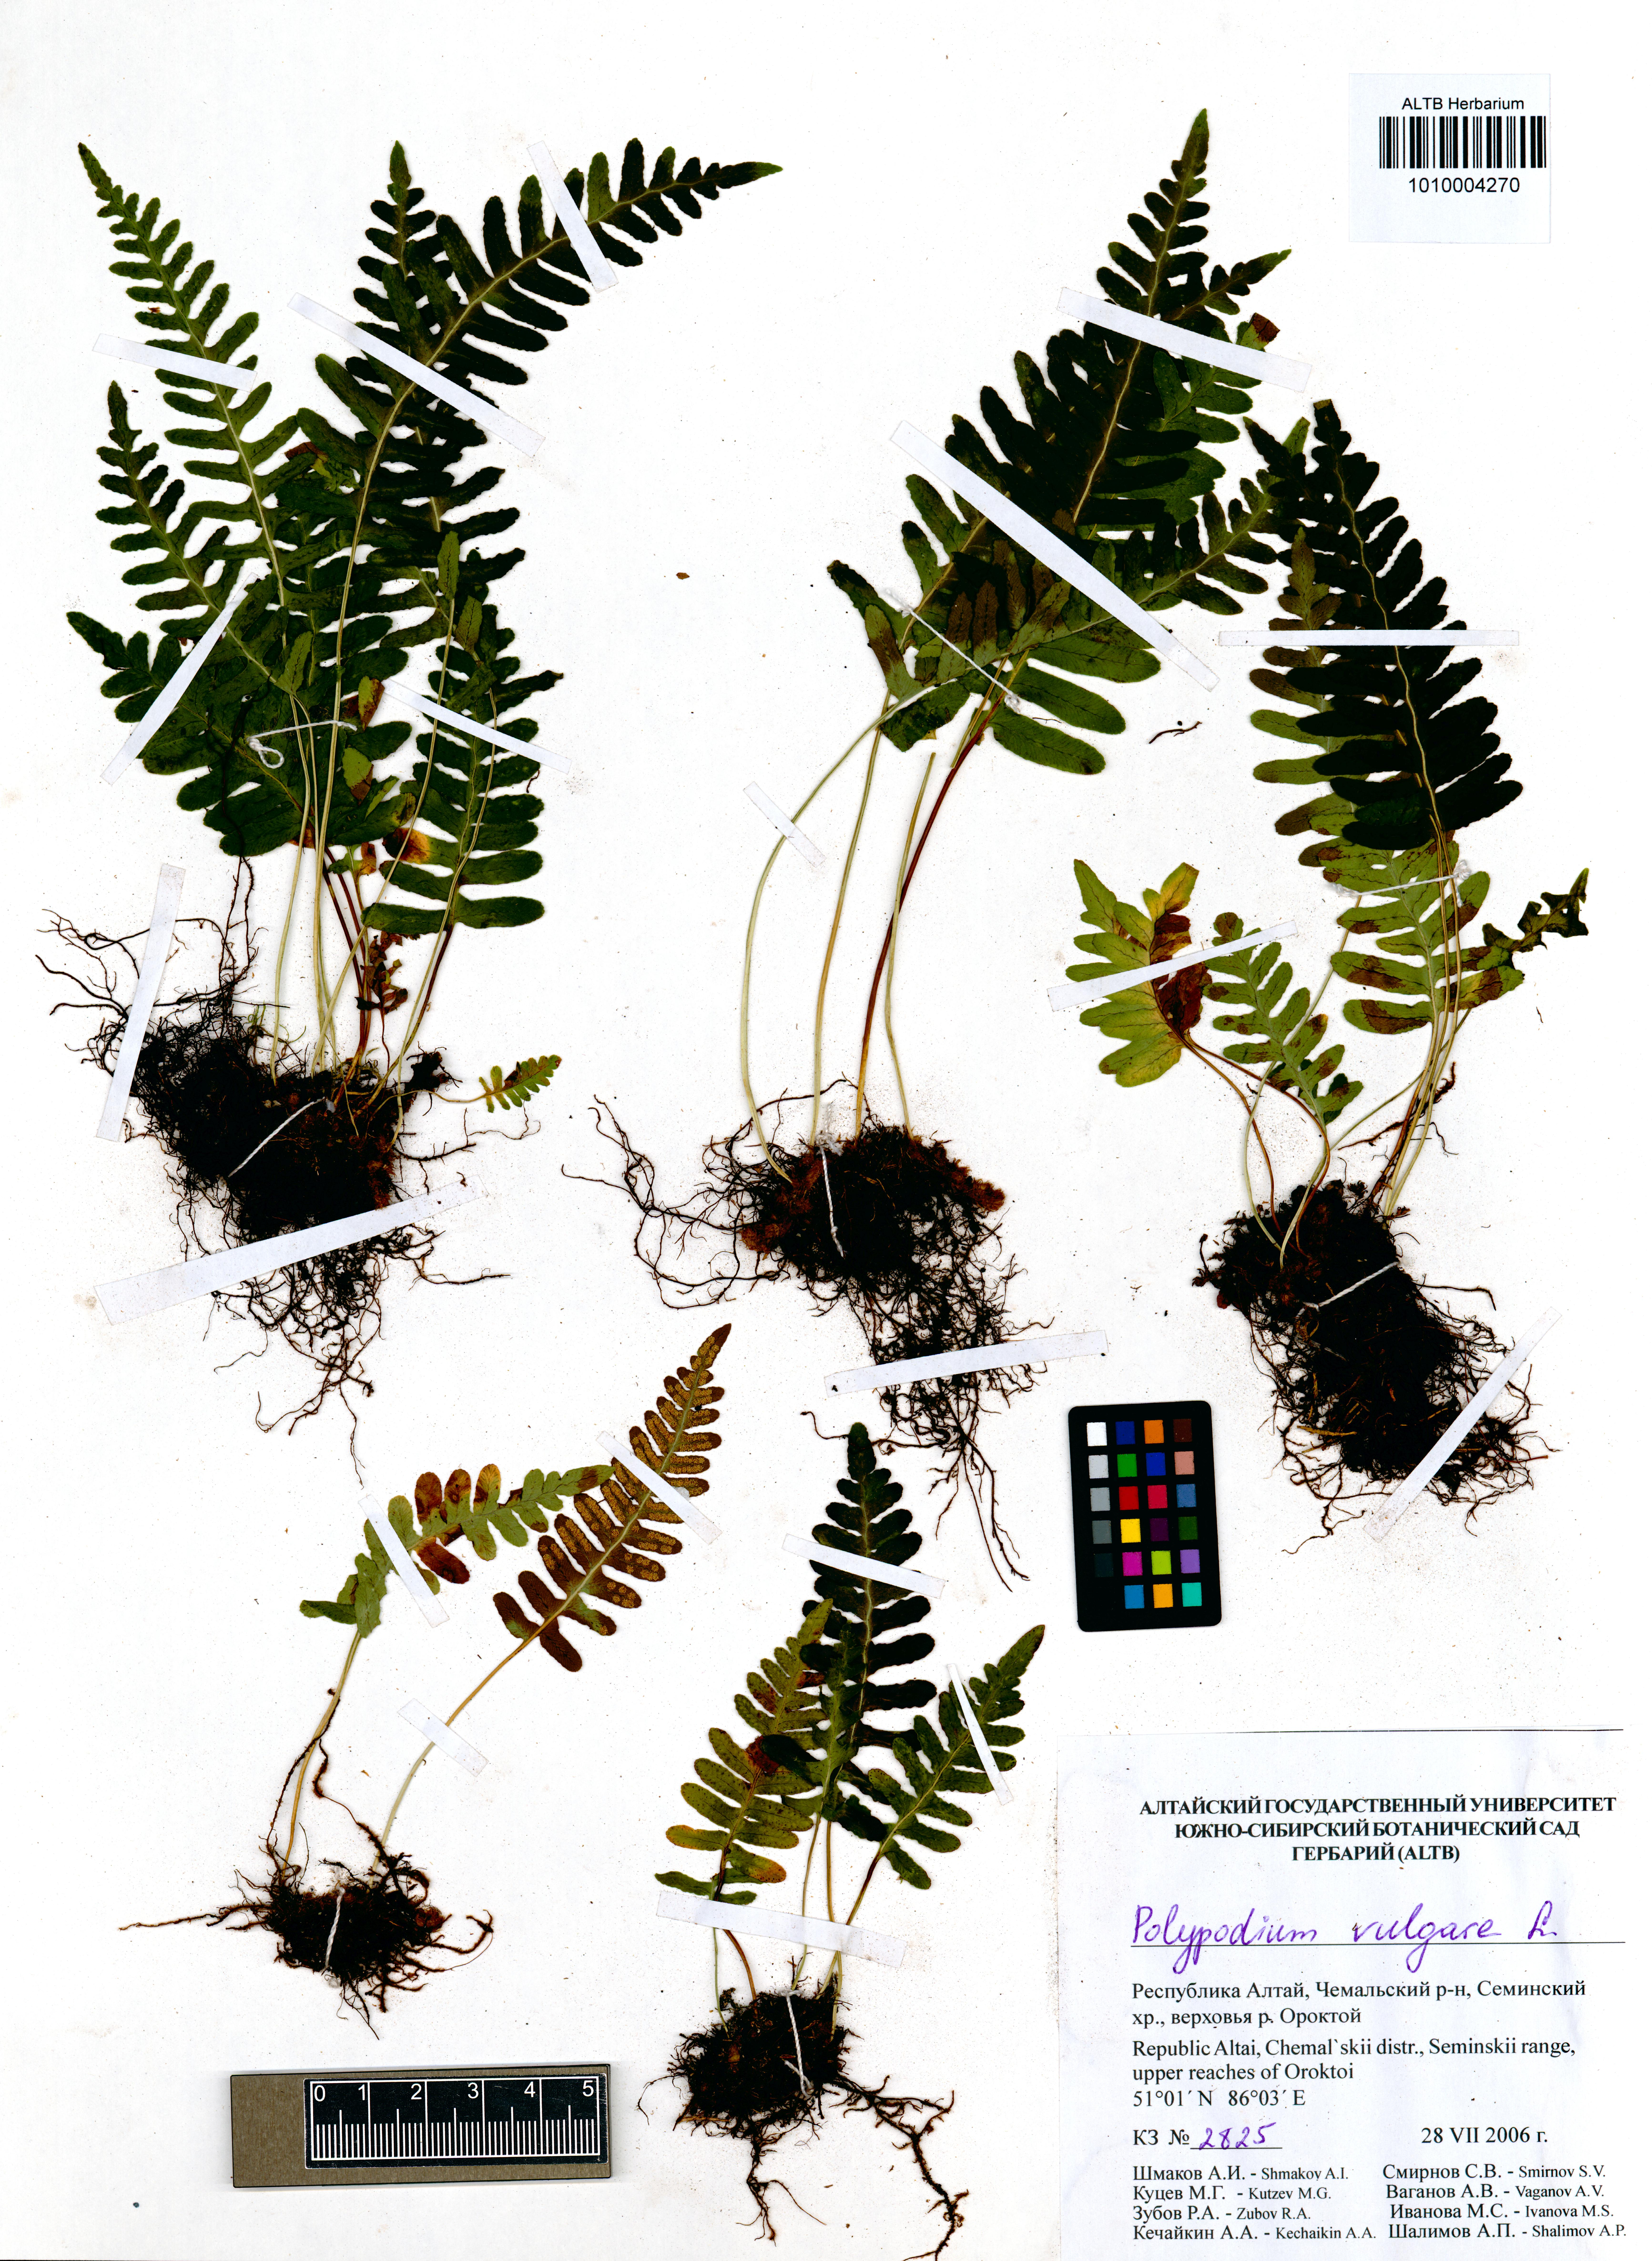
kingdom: Plantae
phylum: Tracheophyta
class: Polypodiopsida
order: Polypodiales
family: Polypodiaceae
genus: Polypodium
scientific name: Polypodium vulgare
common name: Common polypody
